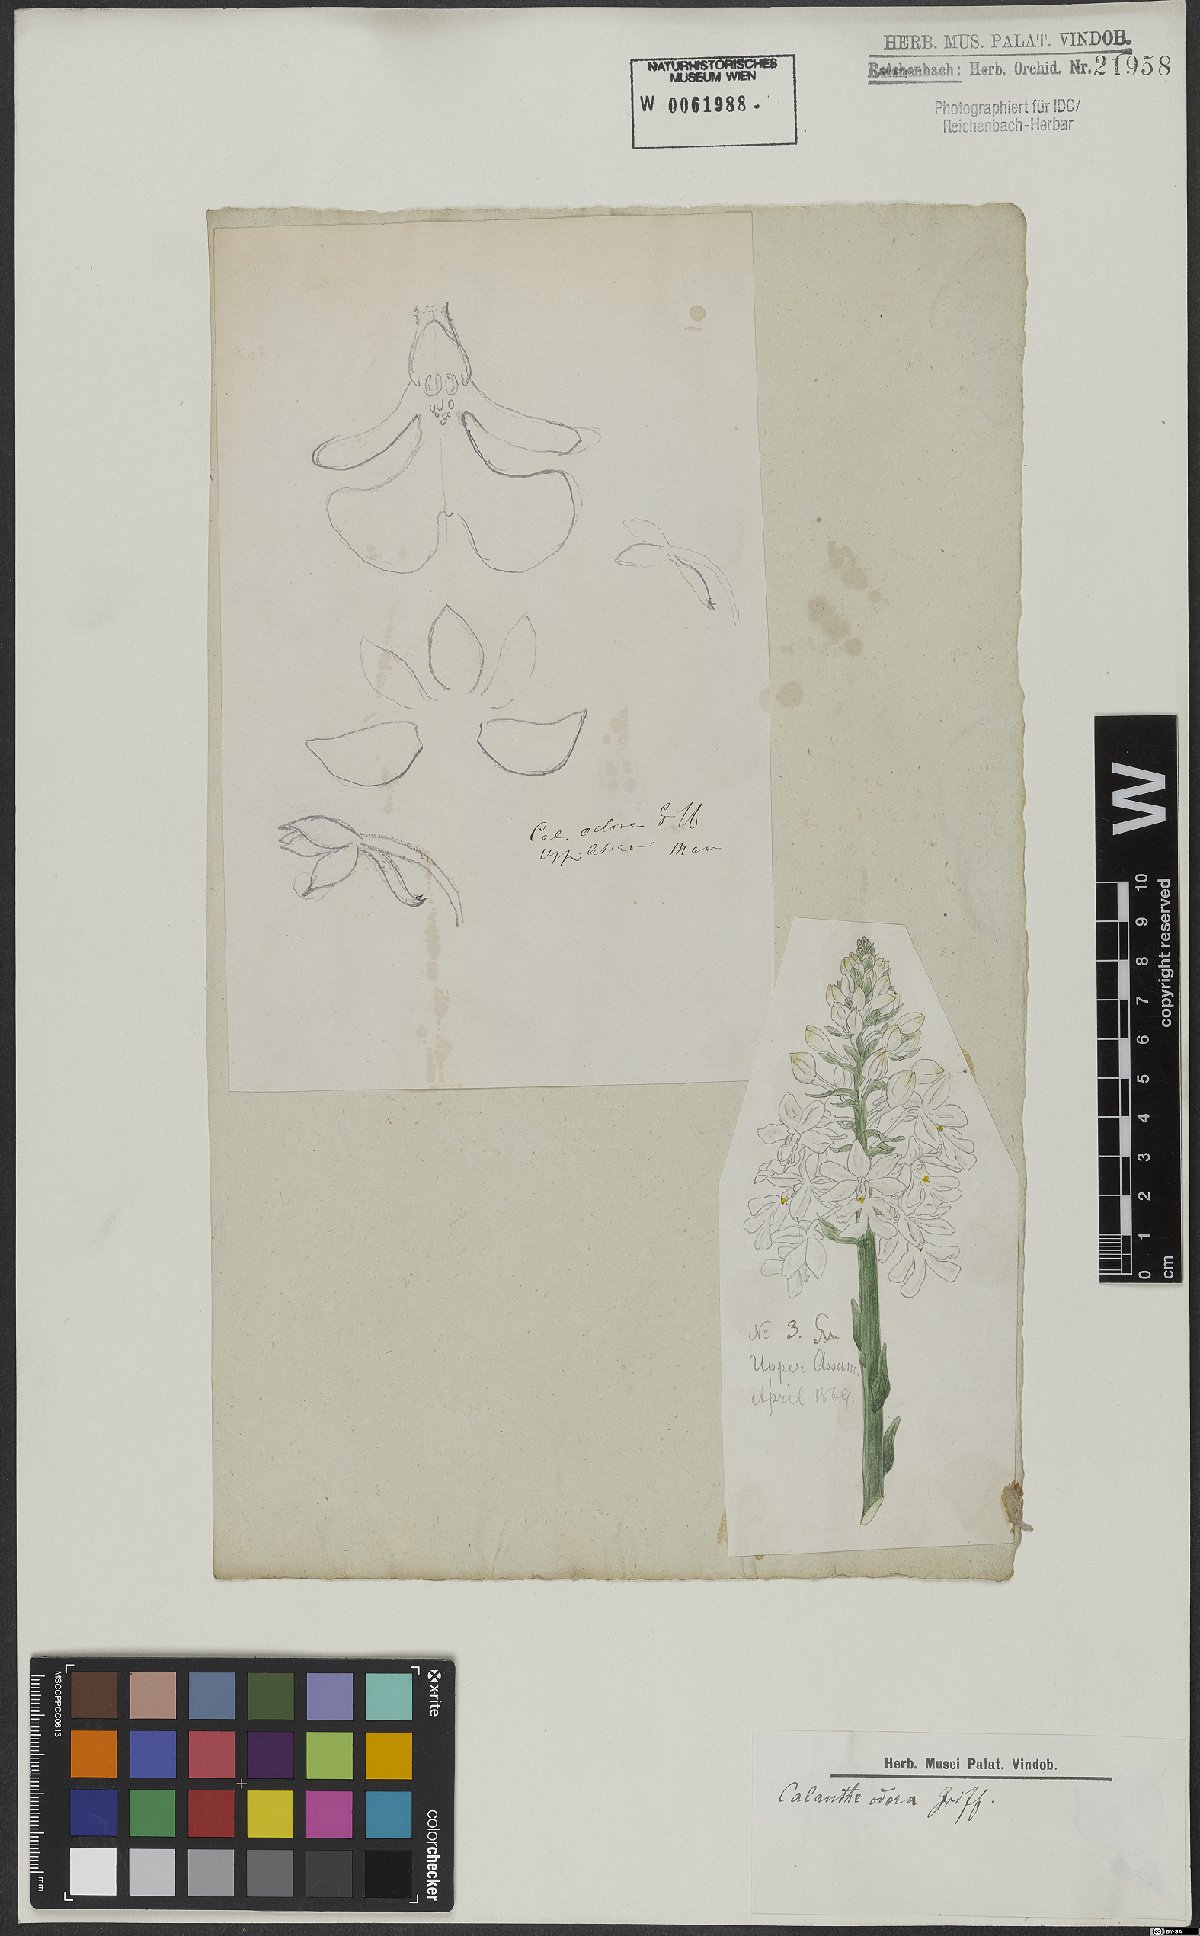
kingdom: Plantae
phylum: Tracheophyta
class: Liliopsida
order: Asparagales
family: Orchidaceae
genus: Calanthe
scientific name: Calanthe odora
